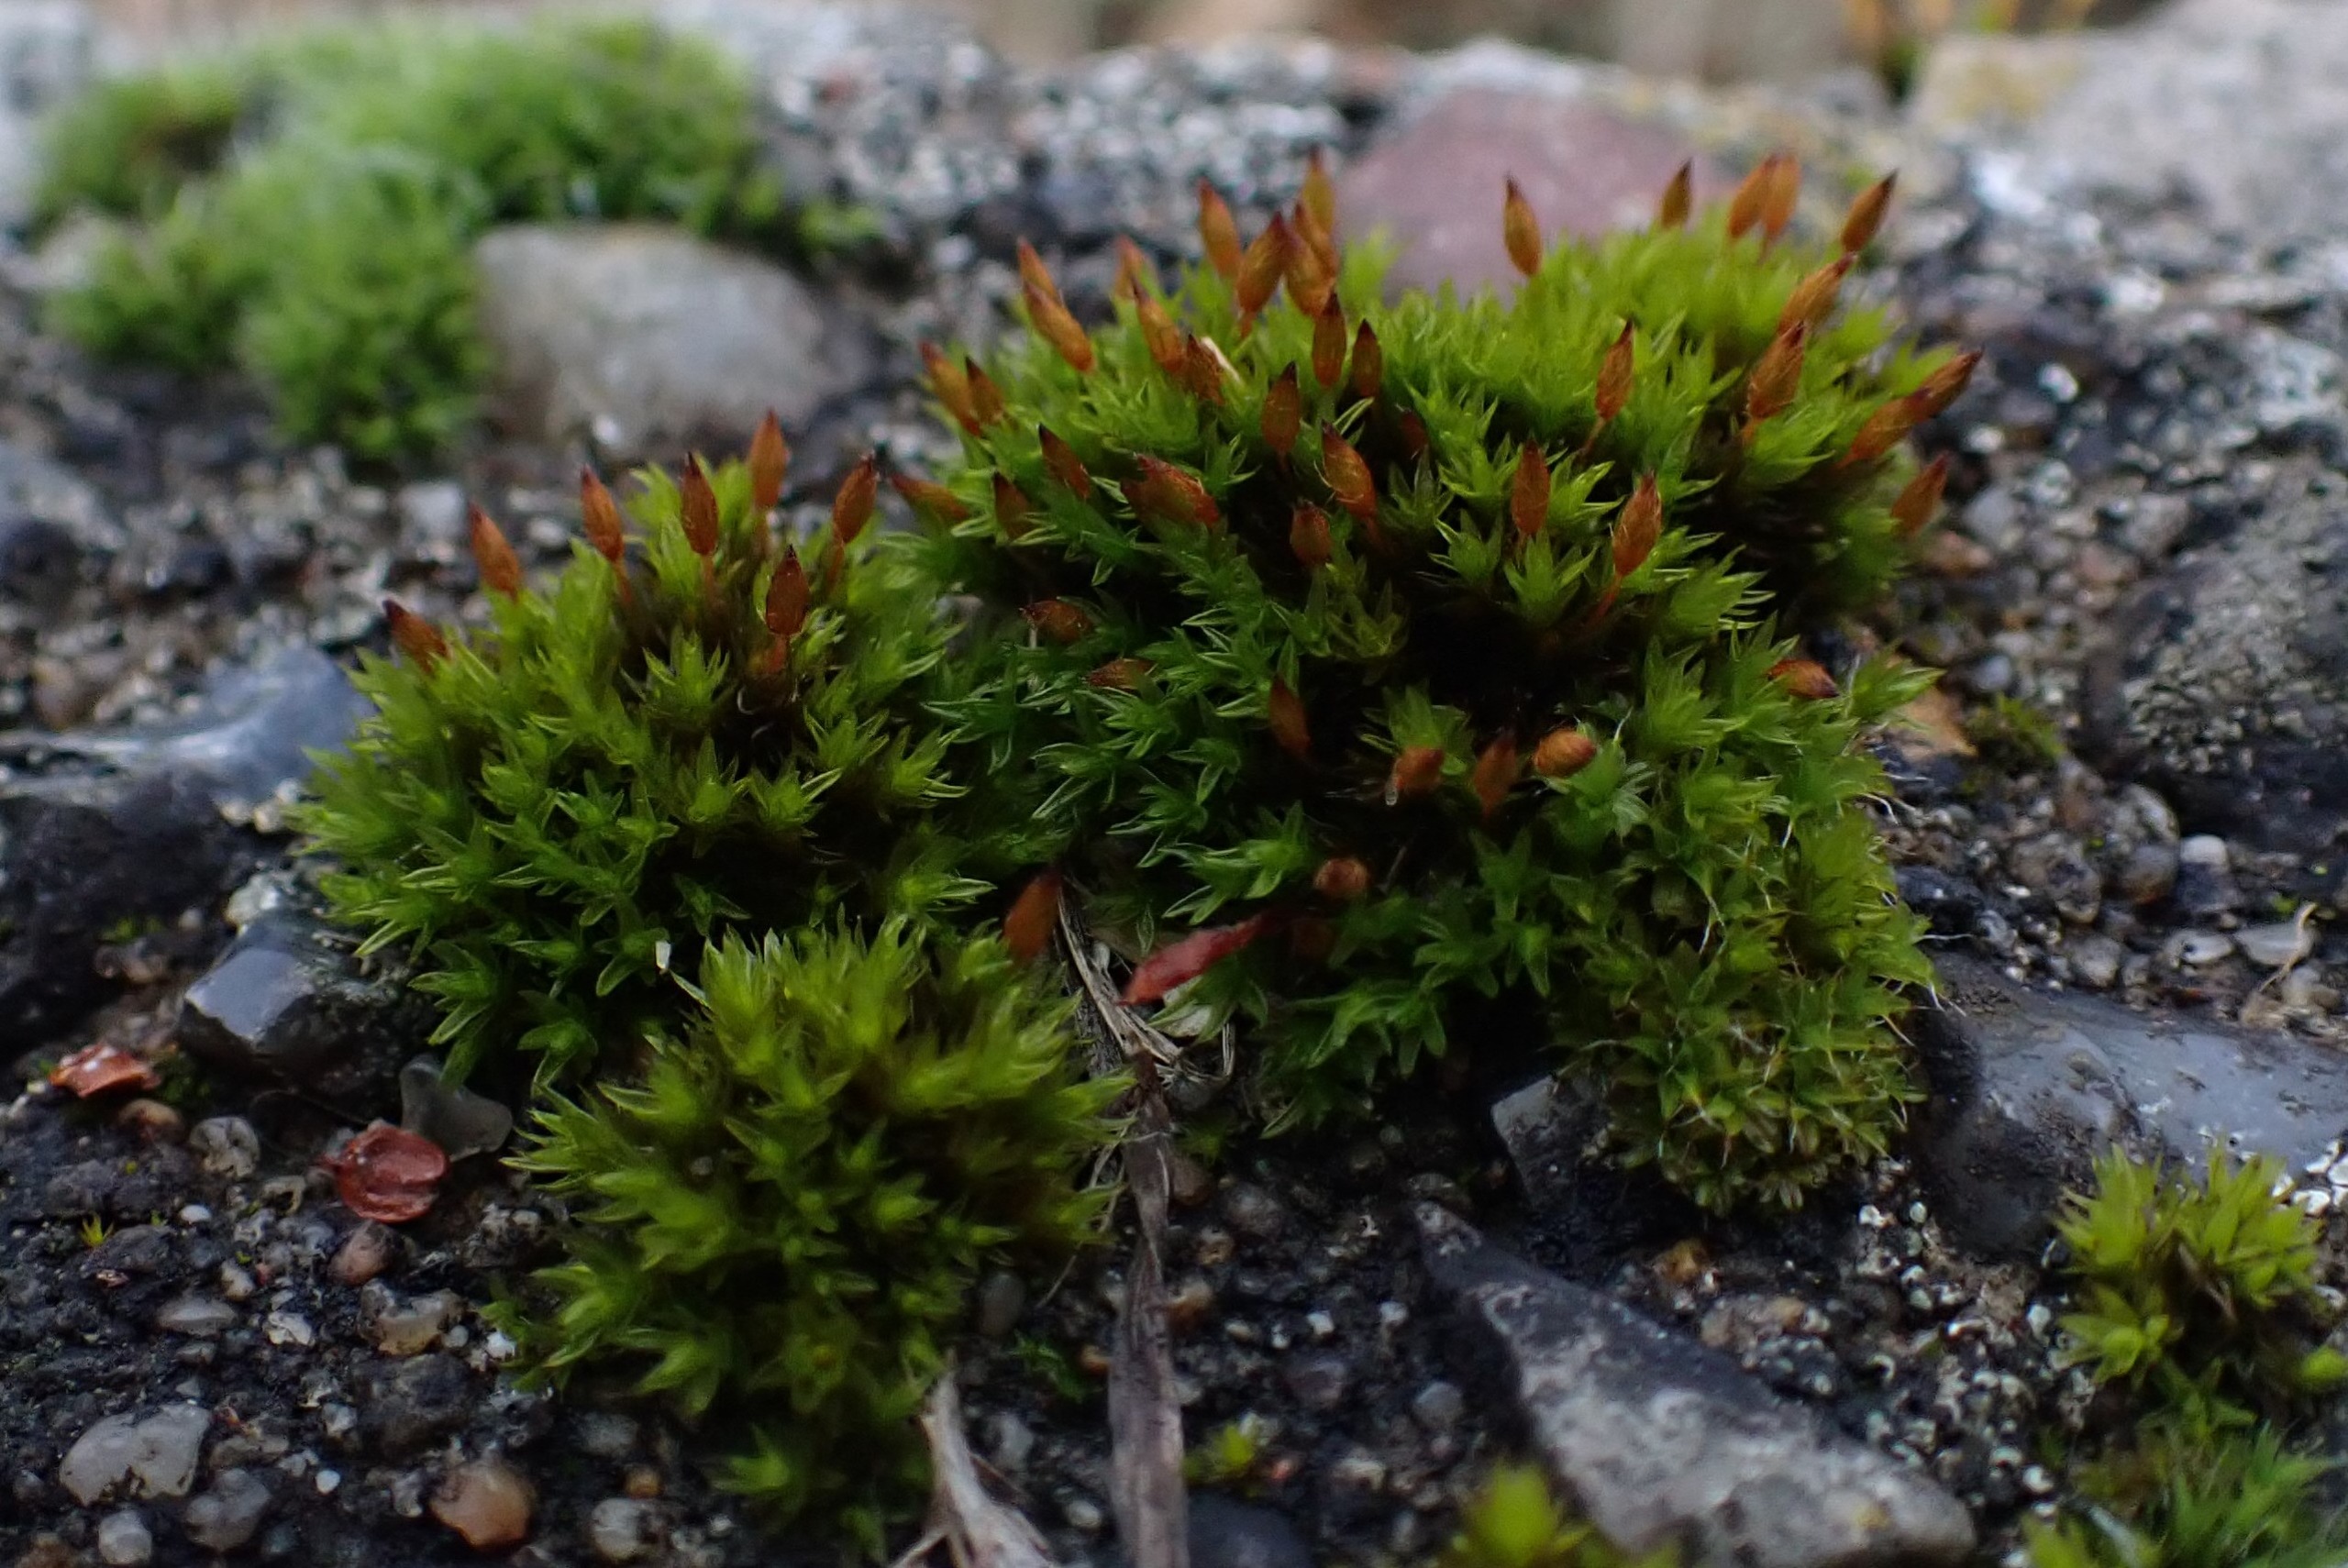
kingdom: Plantae
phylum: Bryophyta
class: Bryopsida
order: Orthotrichales
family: Orthotrichaceae
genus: Orthotrichum
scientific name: Orthotrichum anomalum
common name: Mørk furehætte
